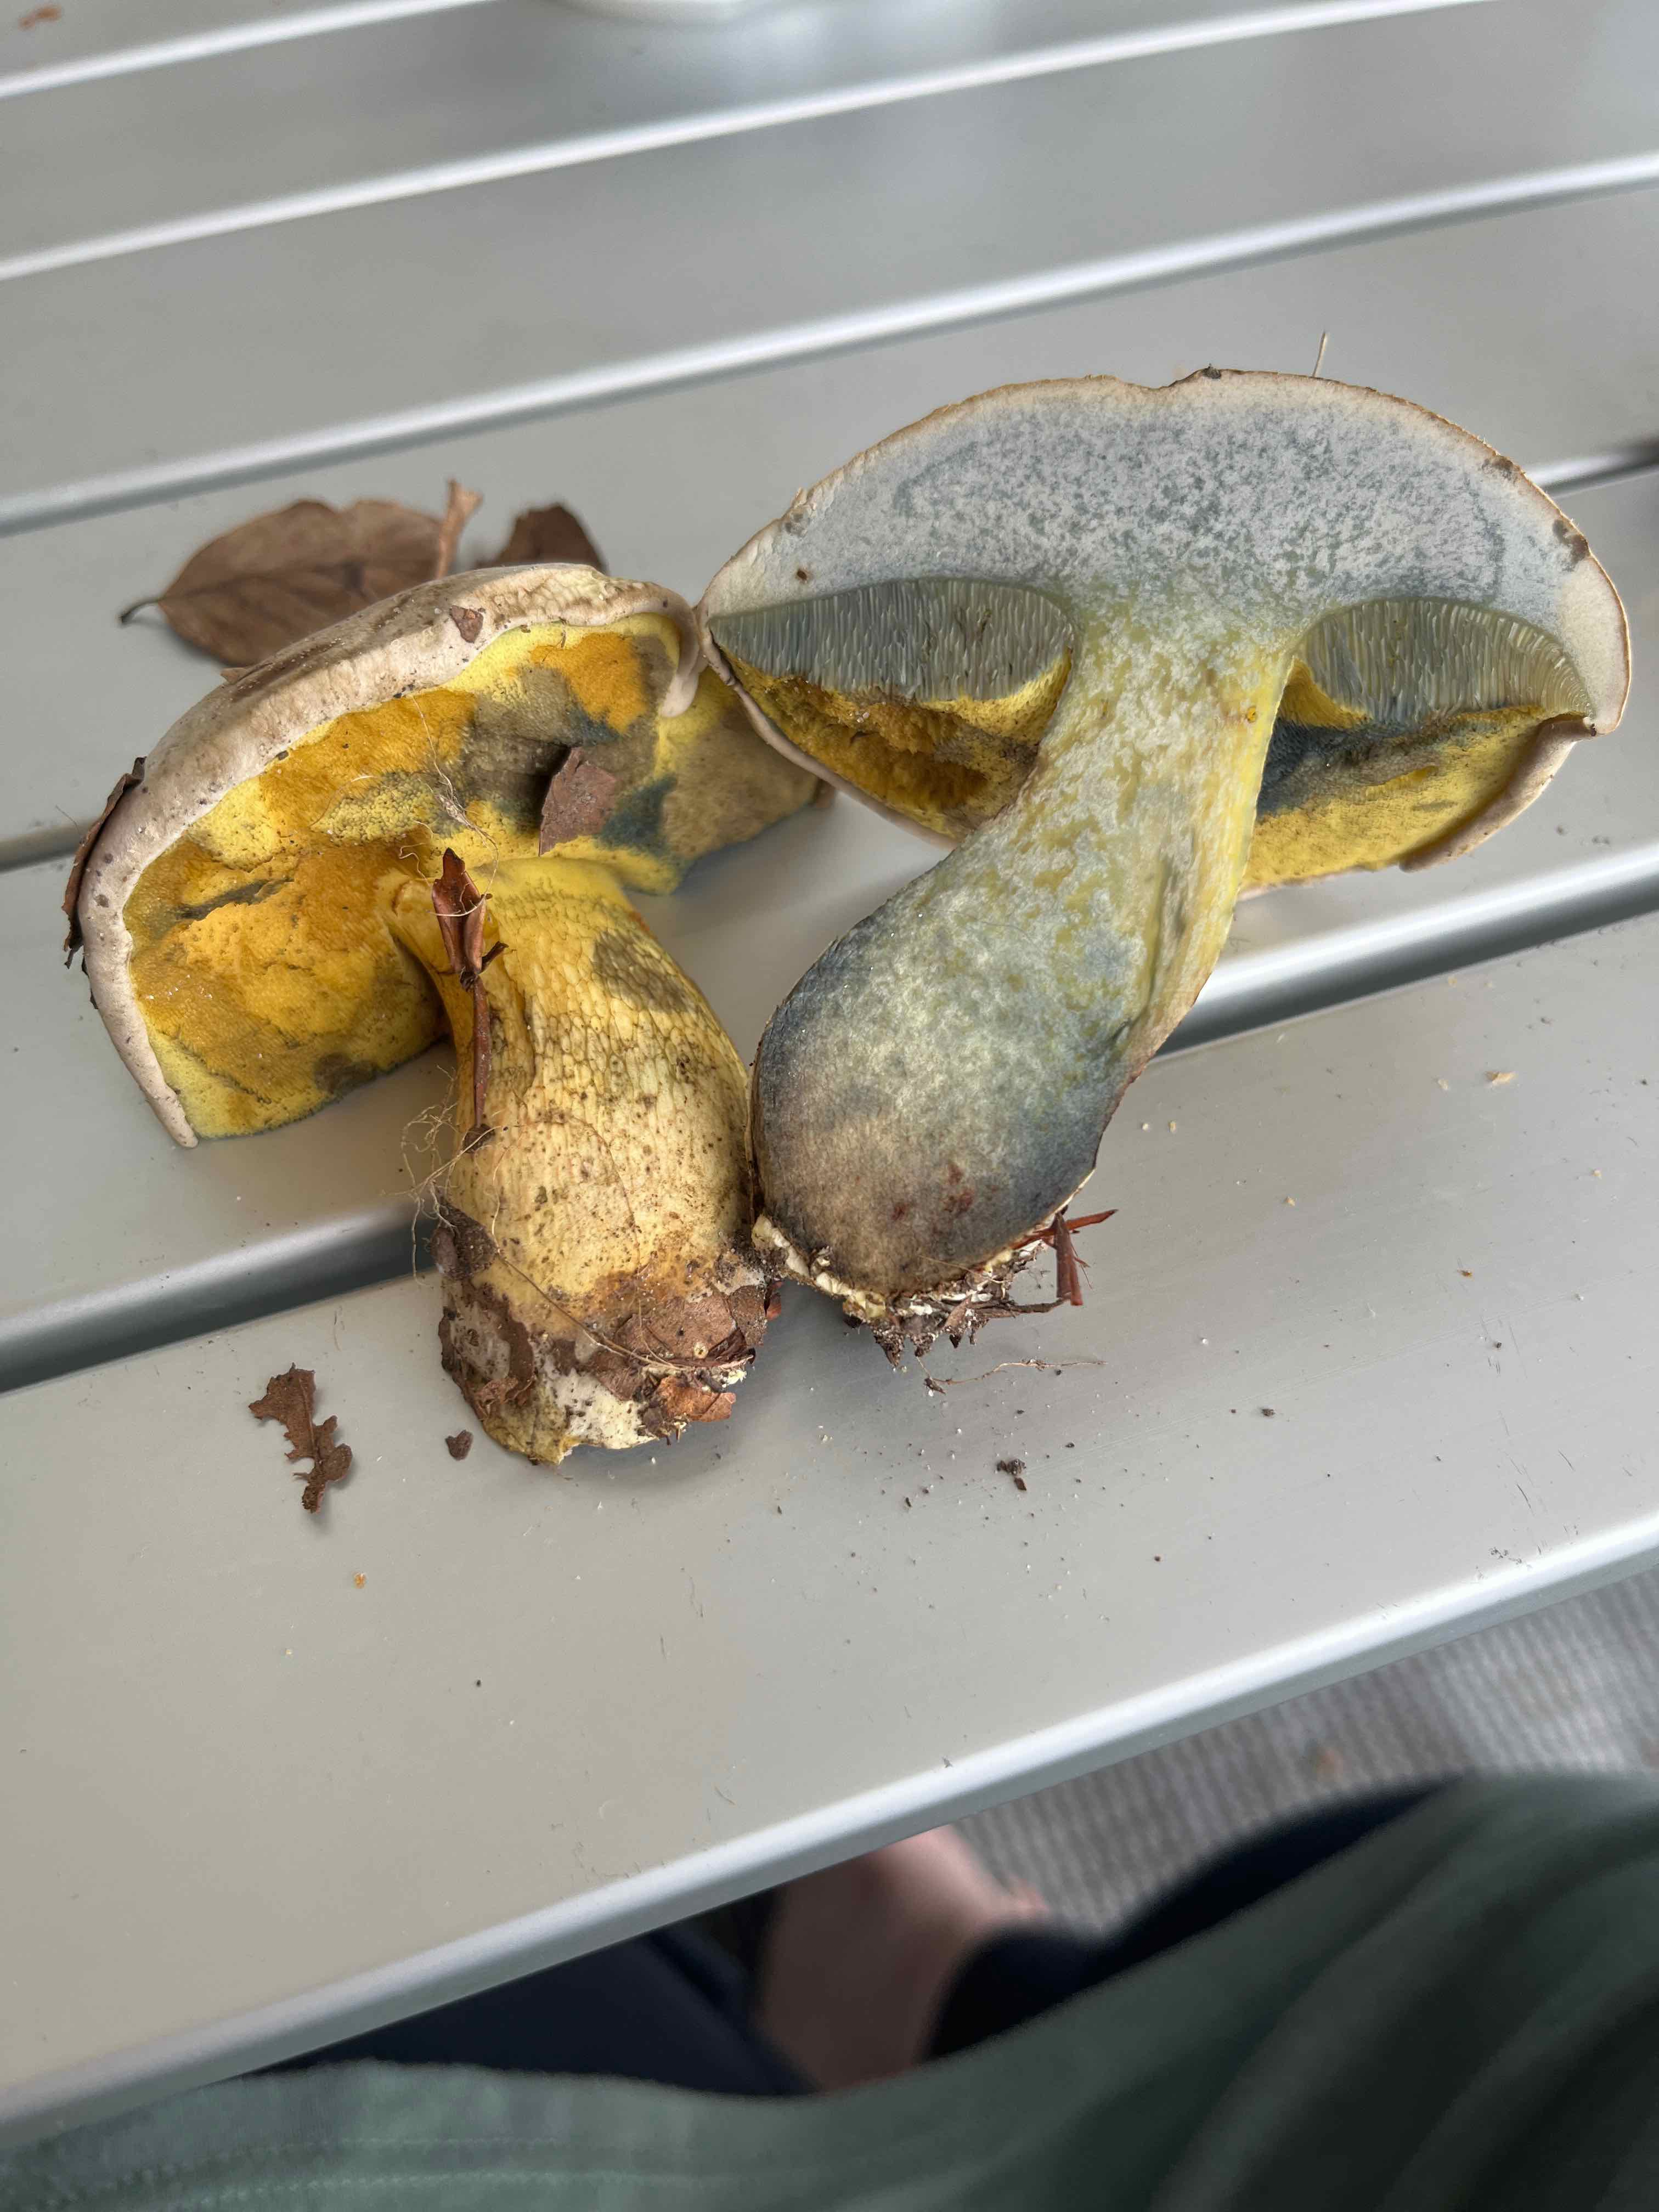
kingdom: Fungi
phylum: Basidiomycota
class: Agaricomycetes
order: Boletales
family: Boletaceae
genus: Caloboletus
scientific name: Caloboletus radicans
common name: rod-rørhat
